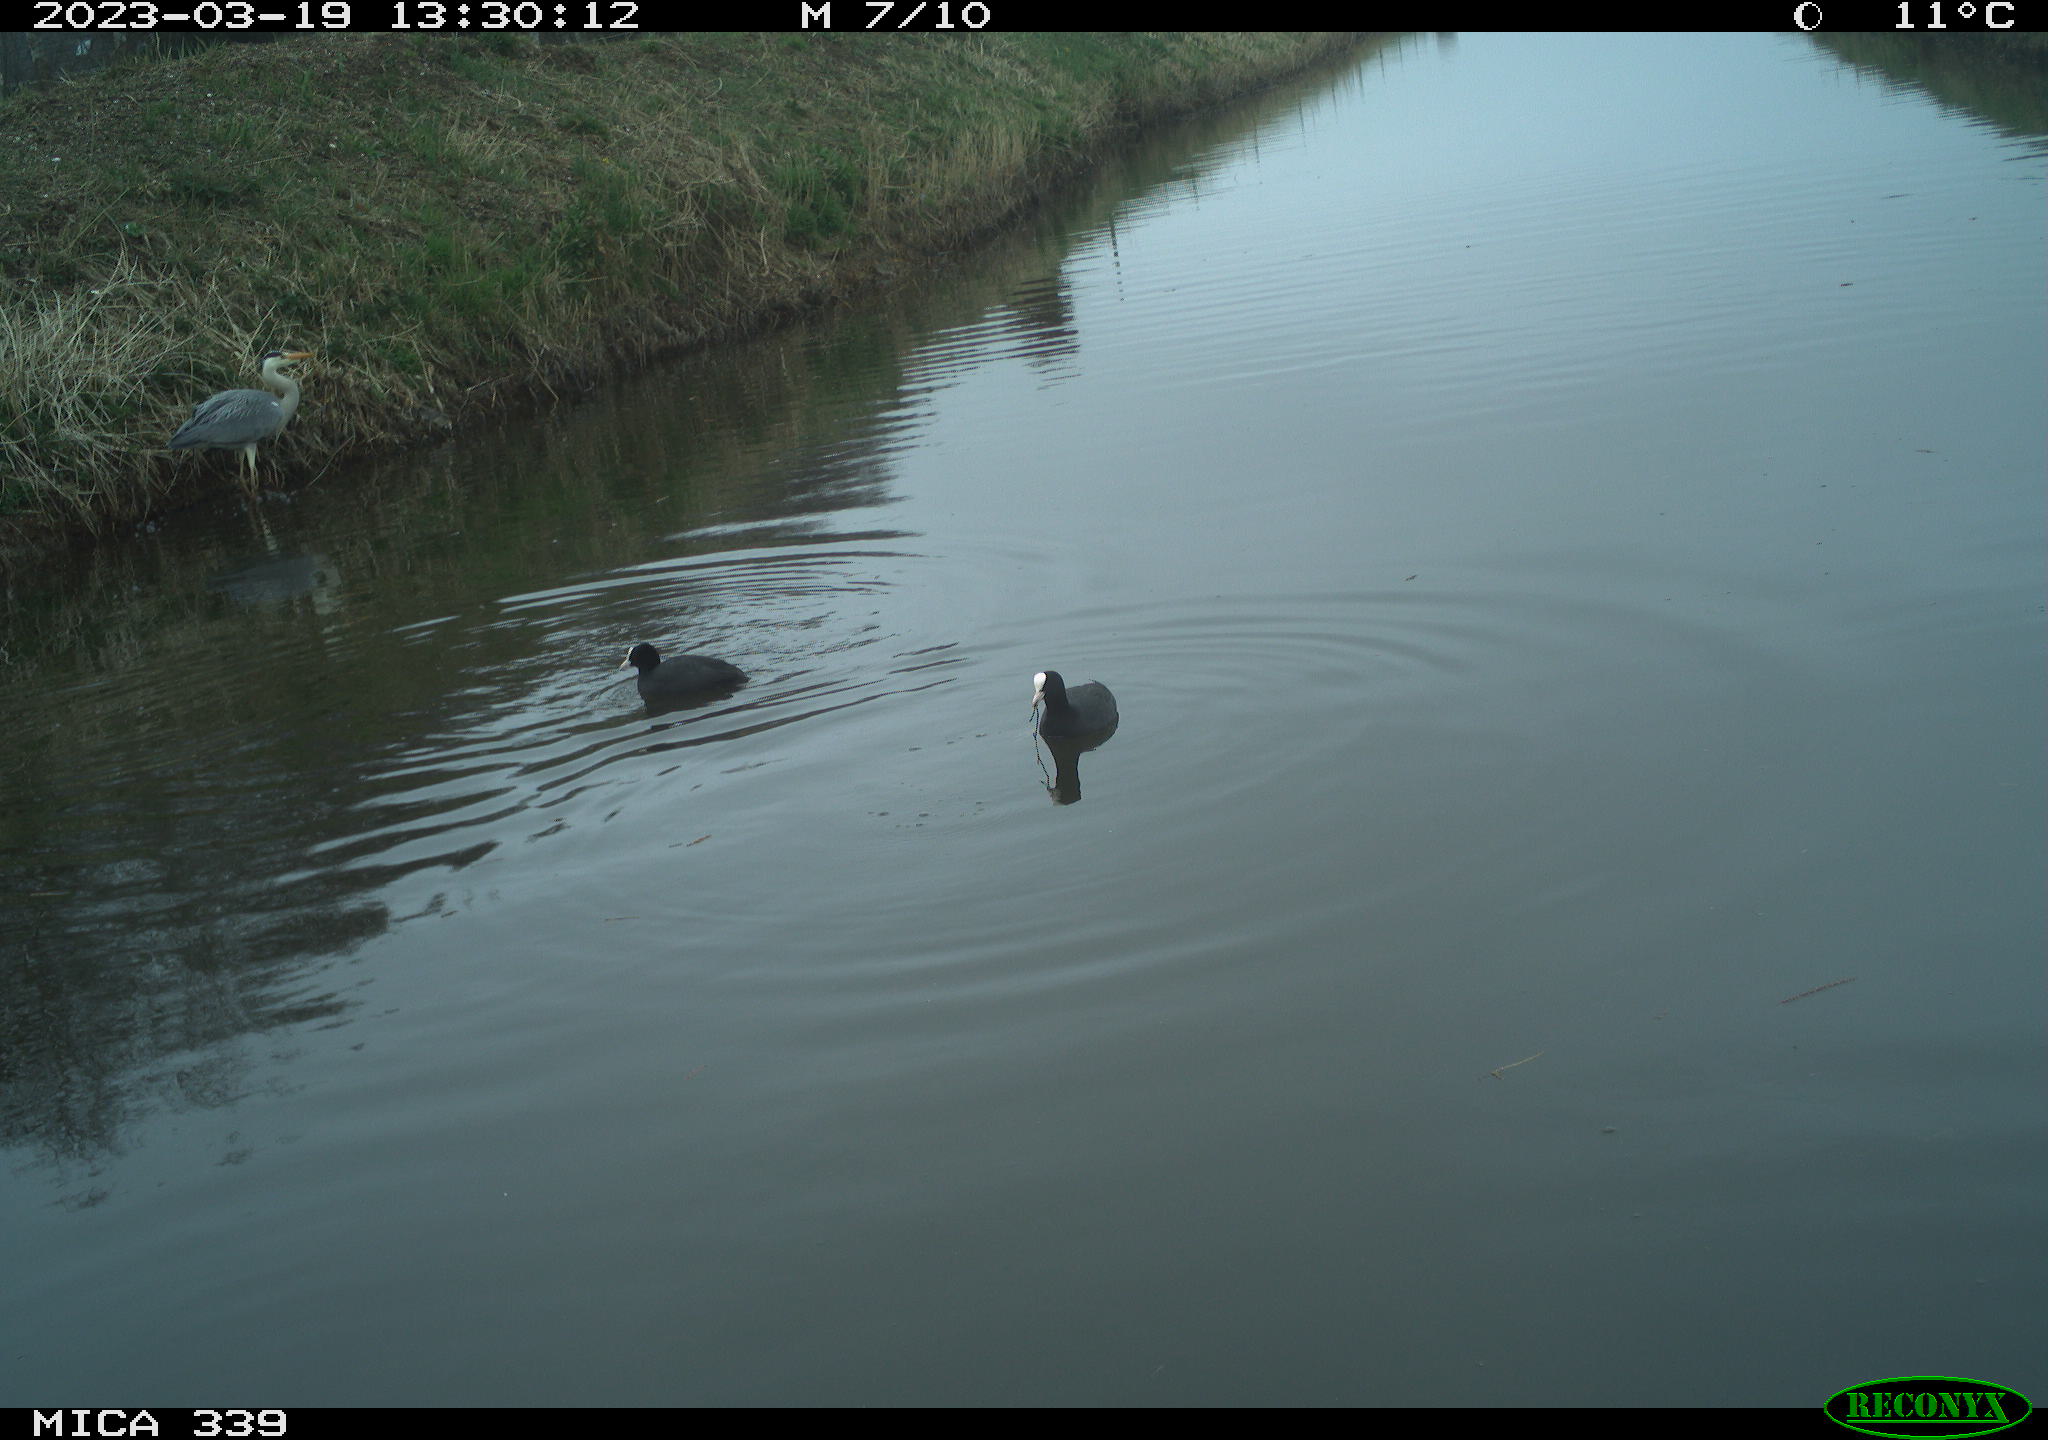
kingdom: Animalia
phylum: Chordata
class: Aves
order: Pelecaniformes
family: Ardeidae
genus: Ardea
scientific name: Ardea
